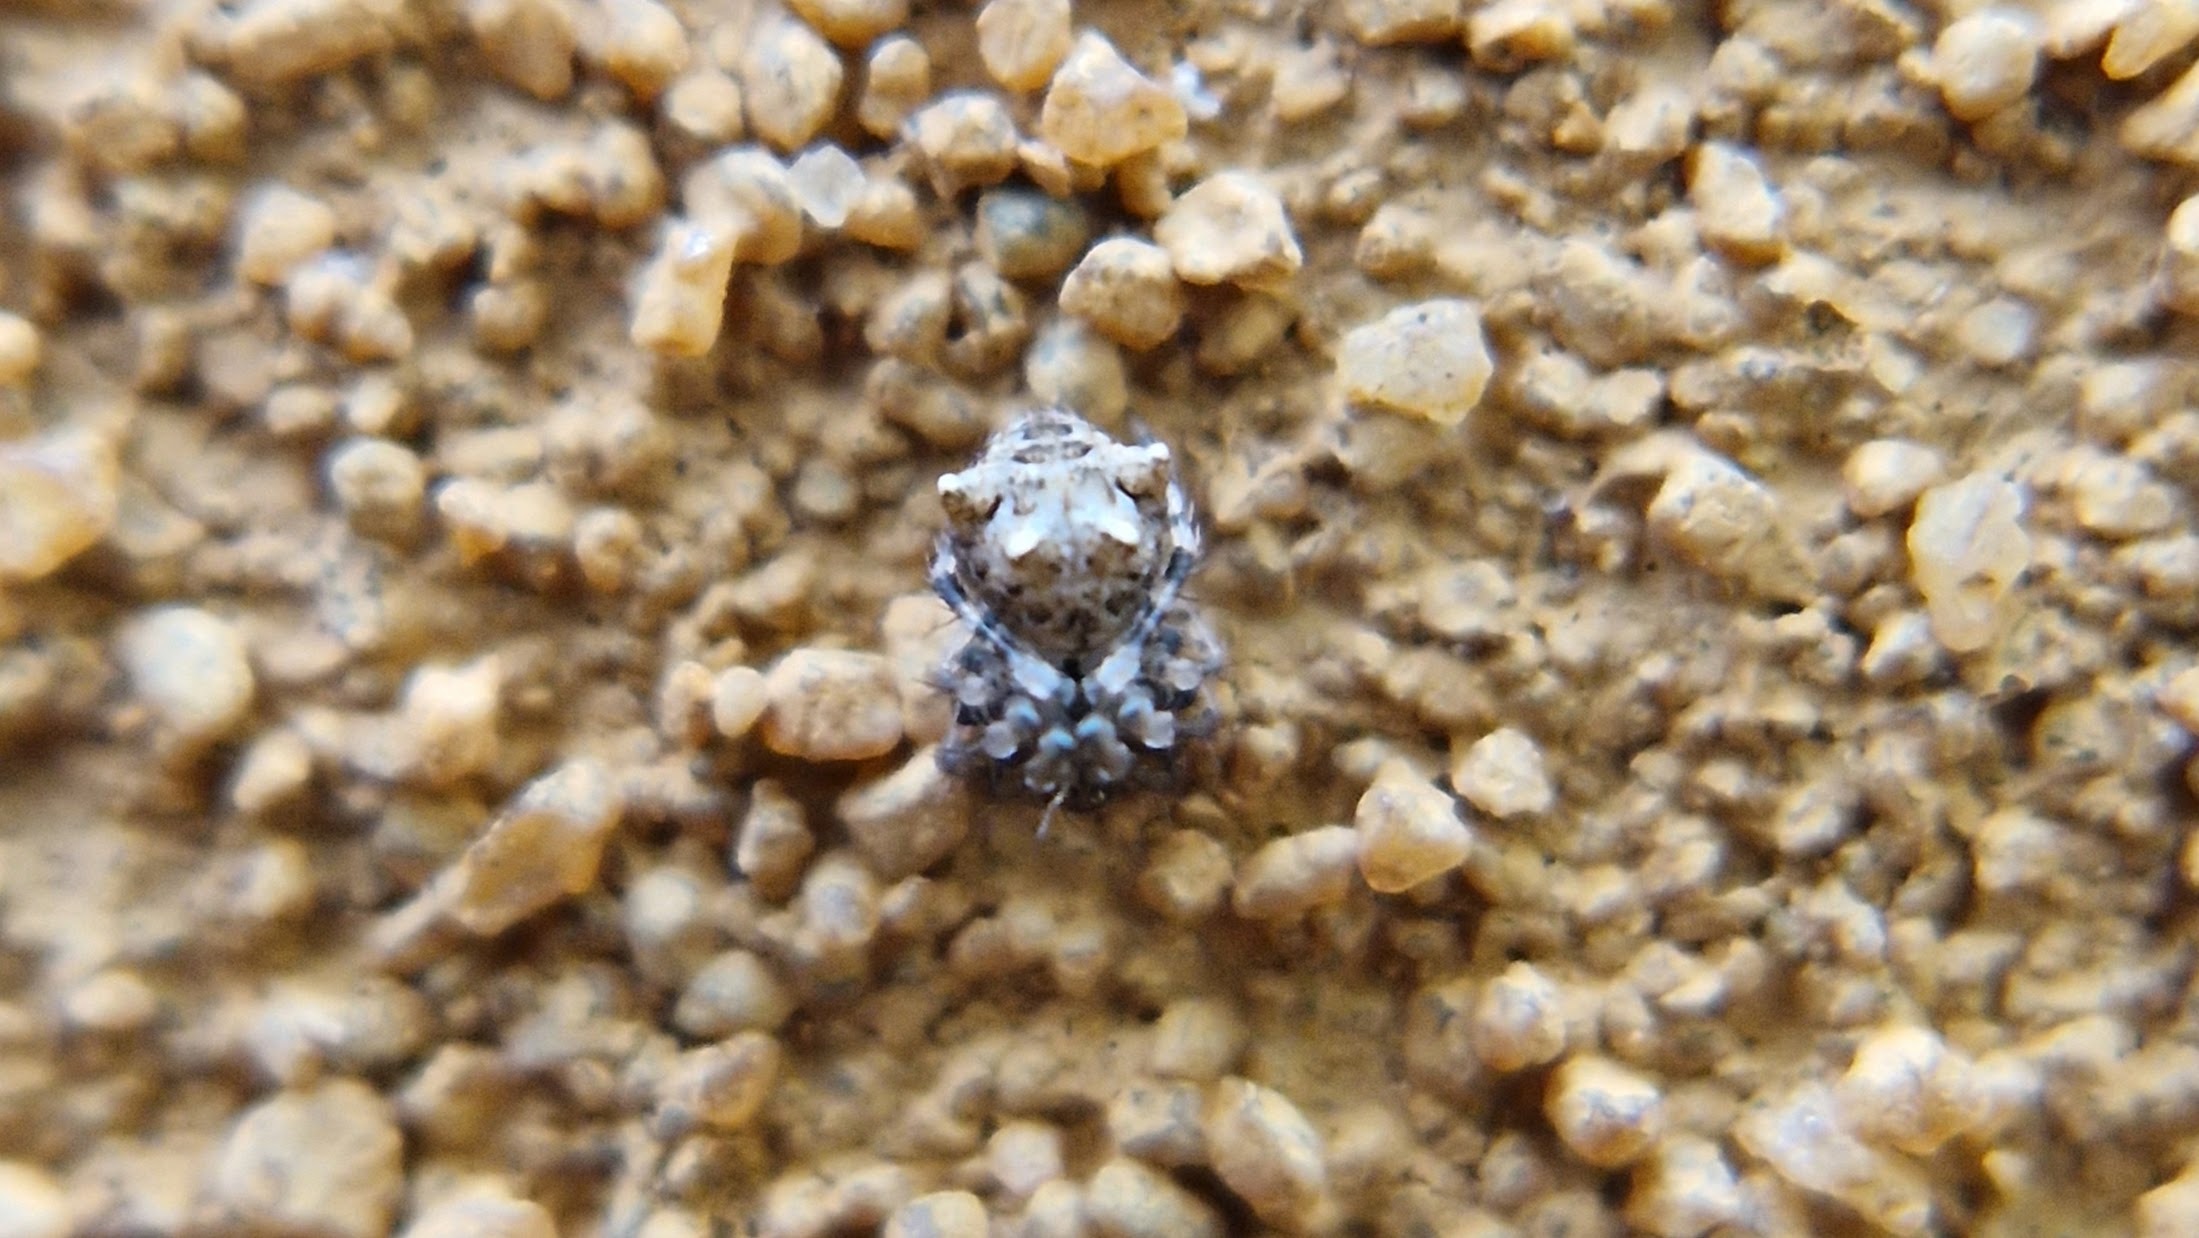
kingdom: Animalia
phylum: Arthropoda
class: Arachnida
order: Araneae
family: Mimetidae
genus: Ero
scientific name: Ero aphana
